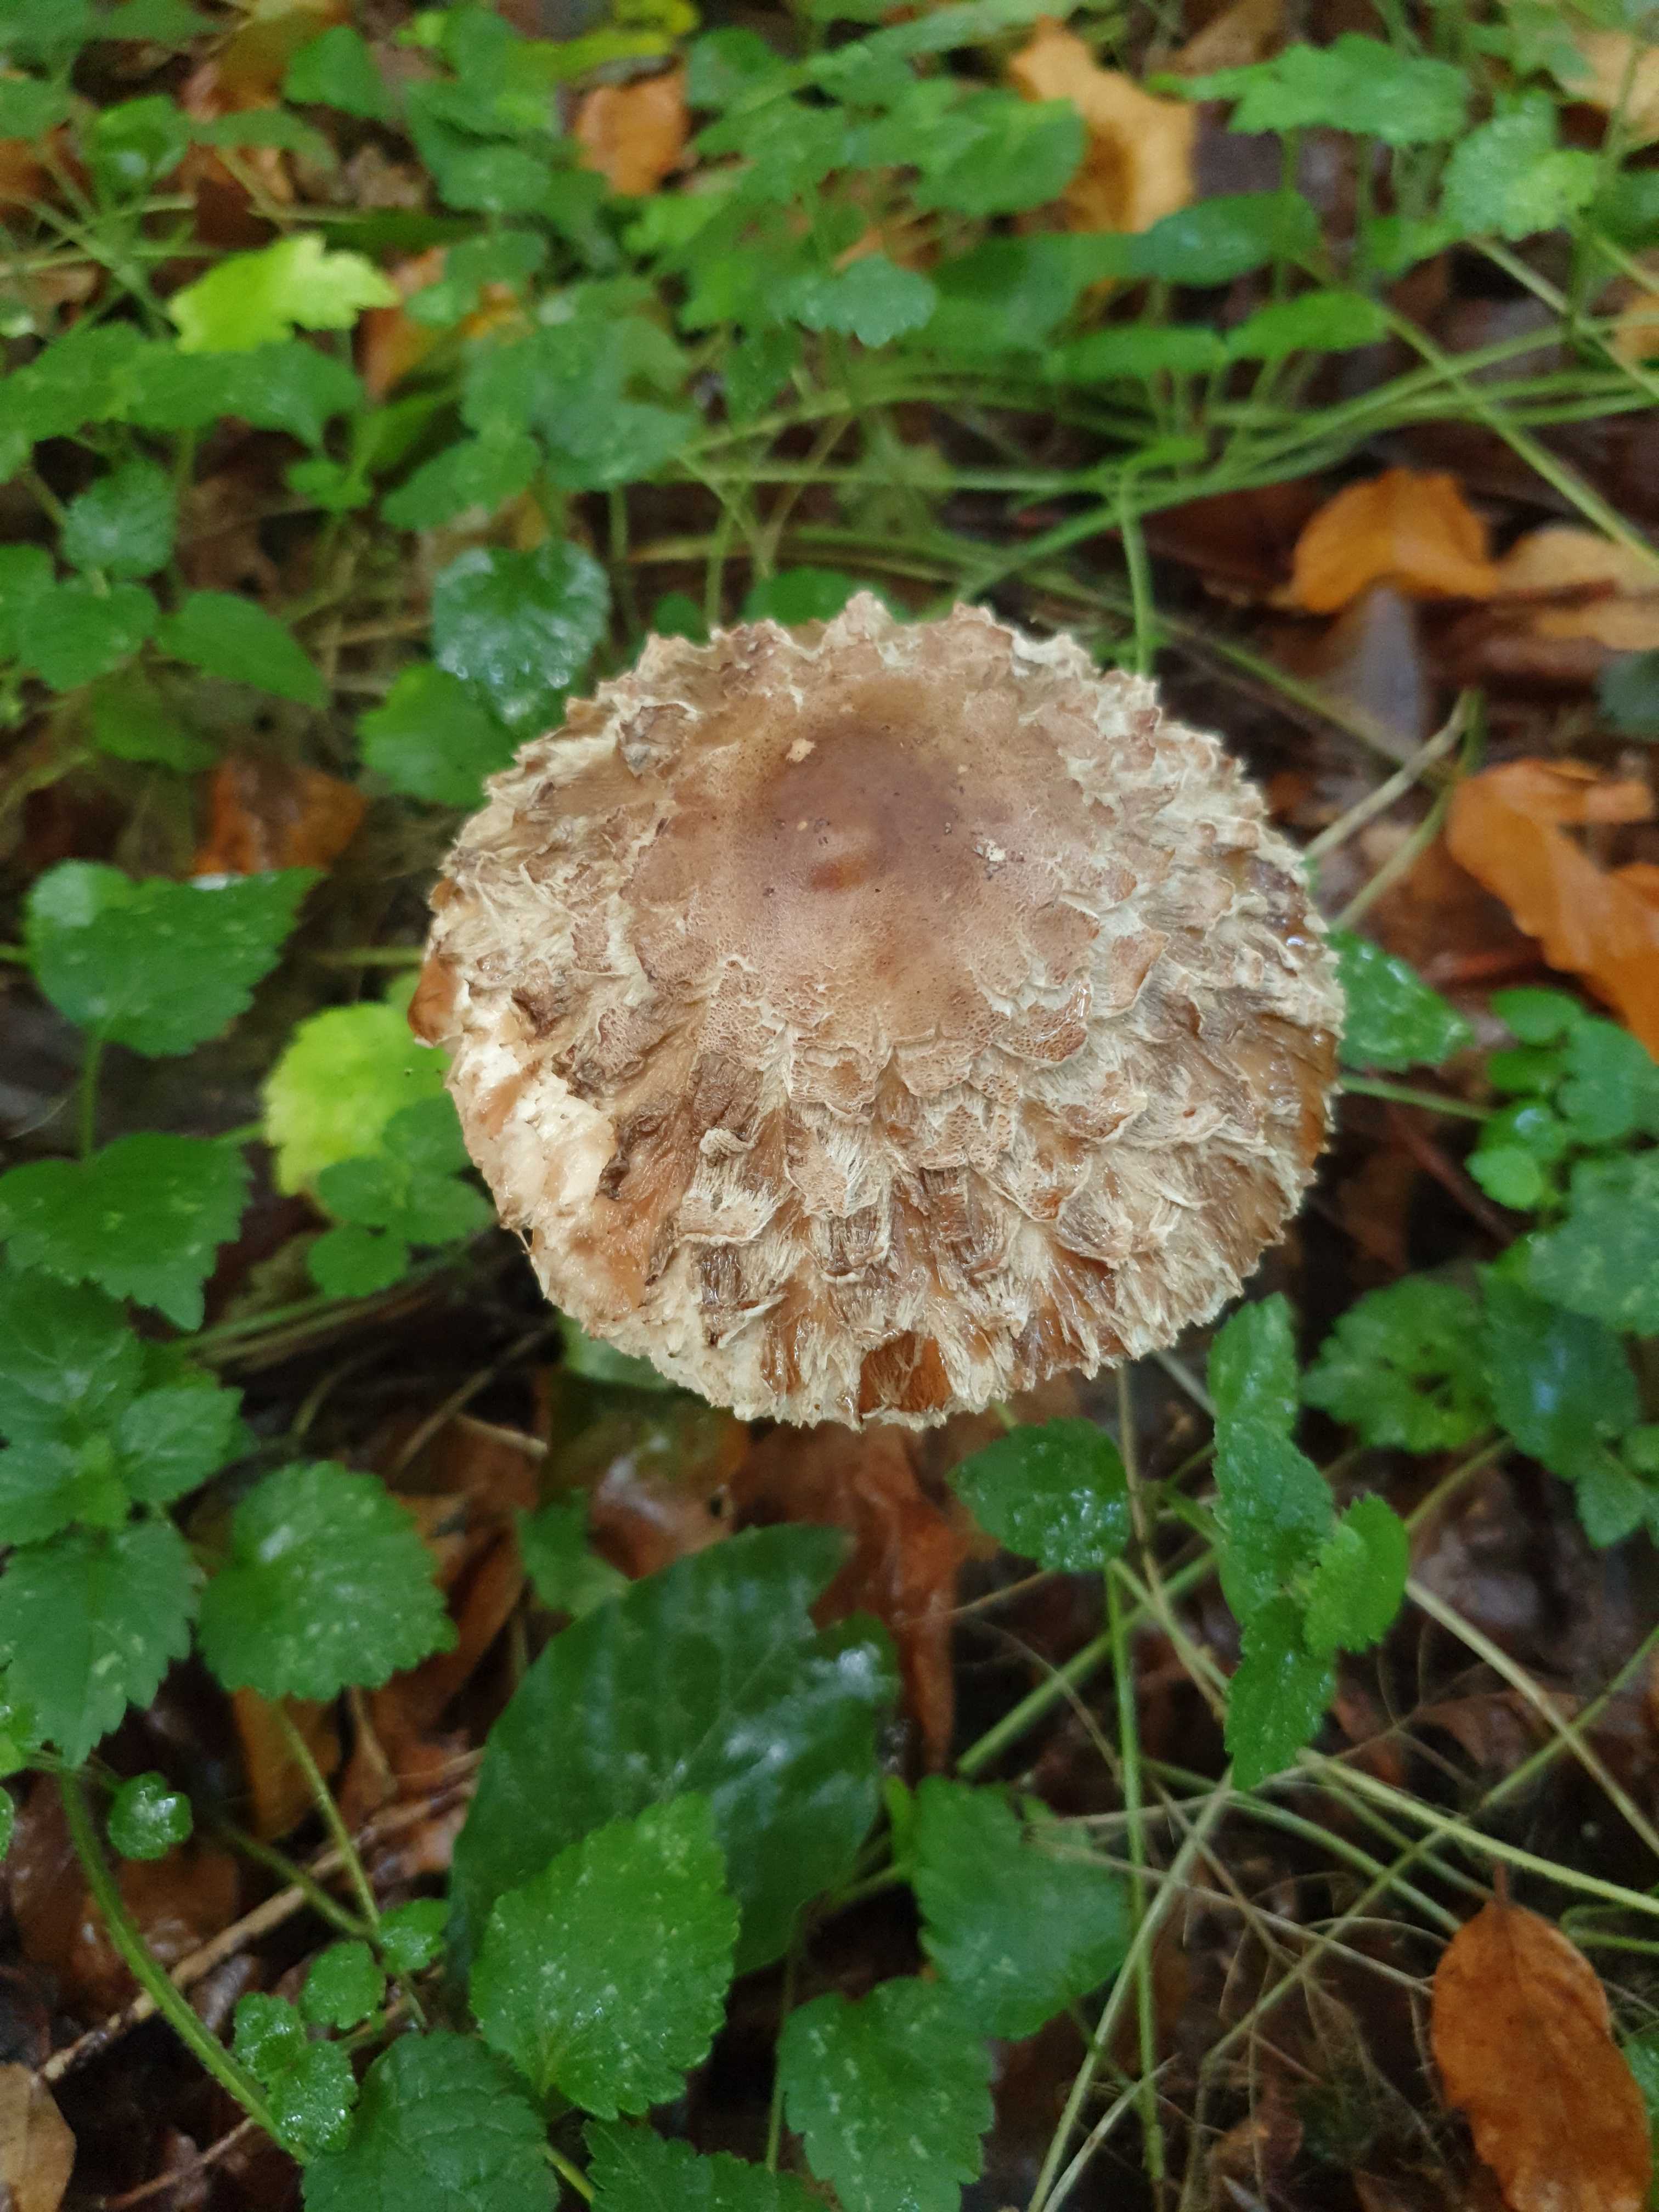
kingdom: Fungi
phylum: Basidiomycota
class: Agaricomycetes
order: Agaricales
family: Agaricaceae
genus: Chlorophyllum
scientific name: Chlorophyllum olivieri
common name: almindelig rabarberhat
